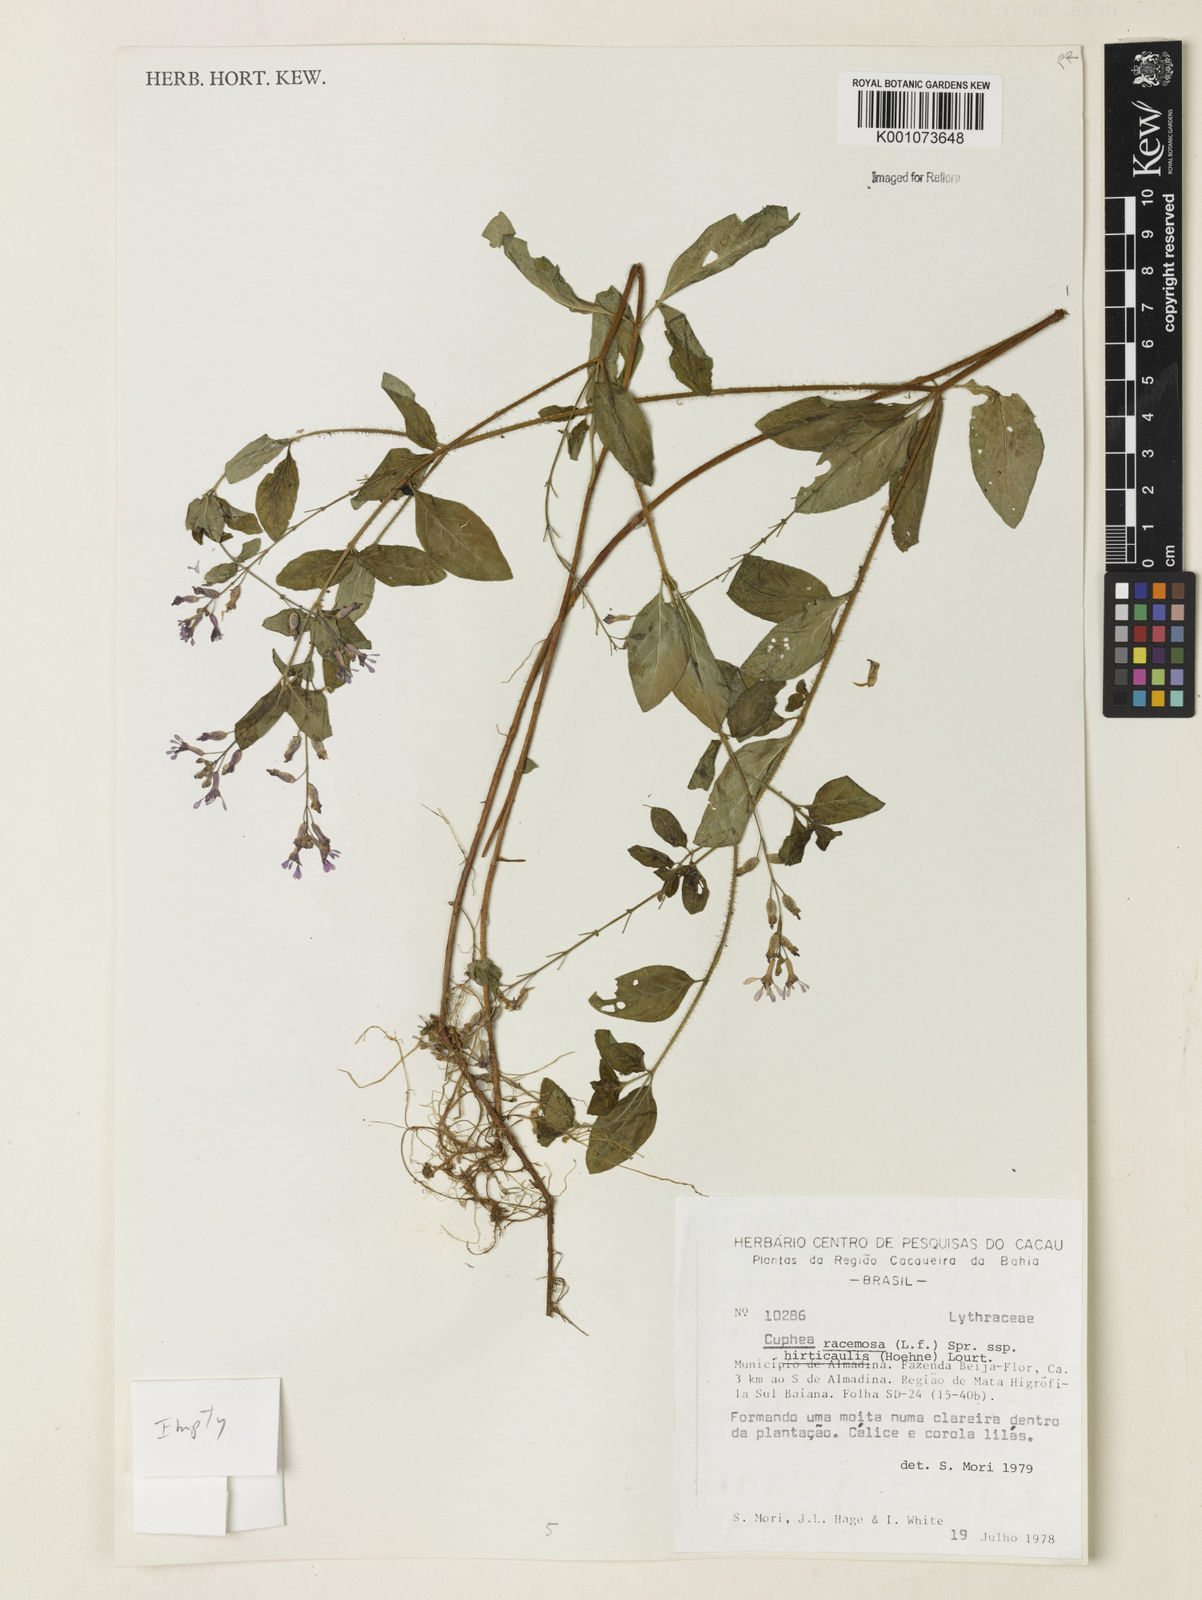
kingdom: Plantae
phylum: Tracheophyta
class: Magnoliopsida
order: Myrtales
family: Lythraceae
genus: Cuphea
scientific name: Cuphea racemosa
